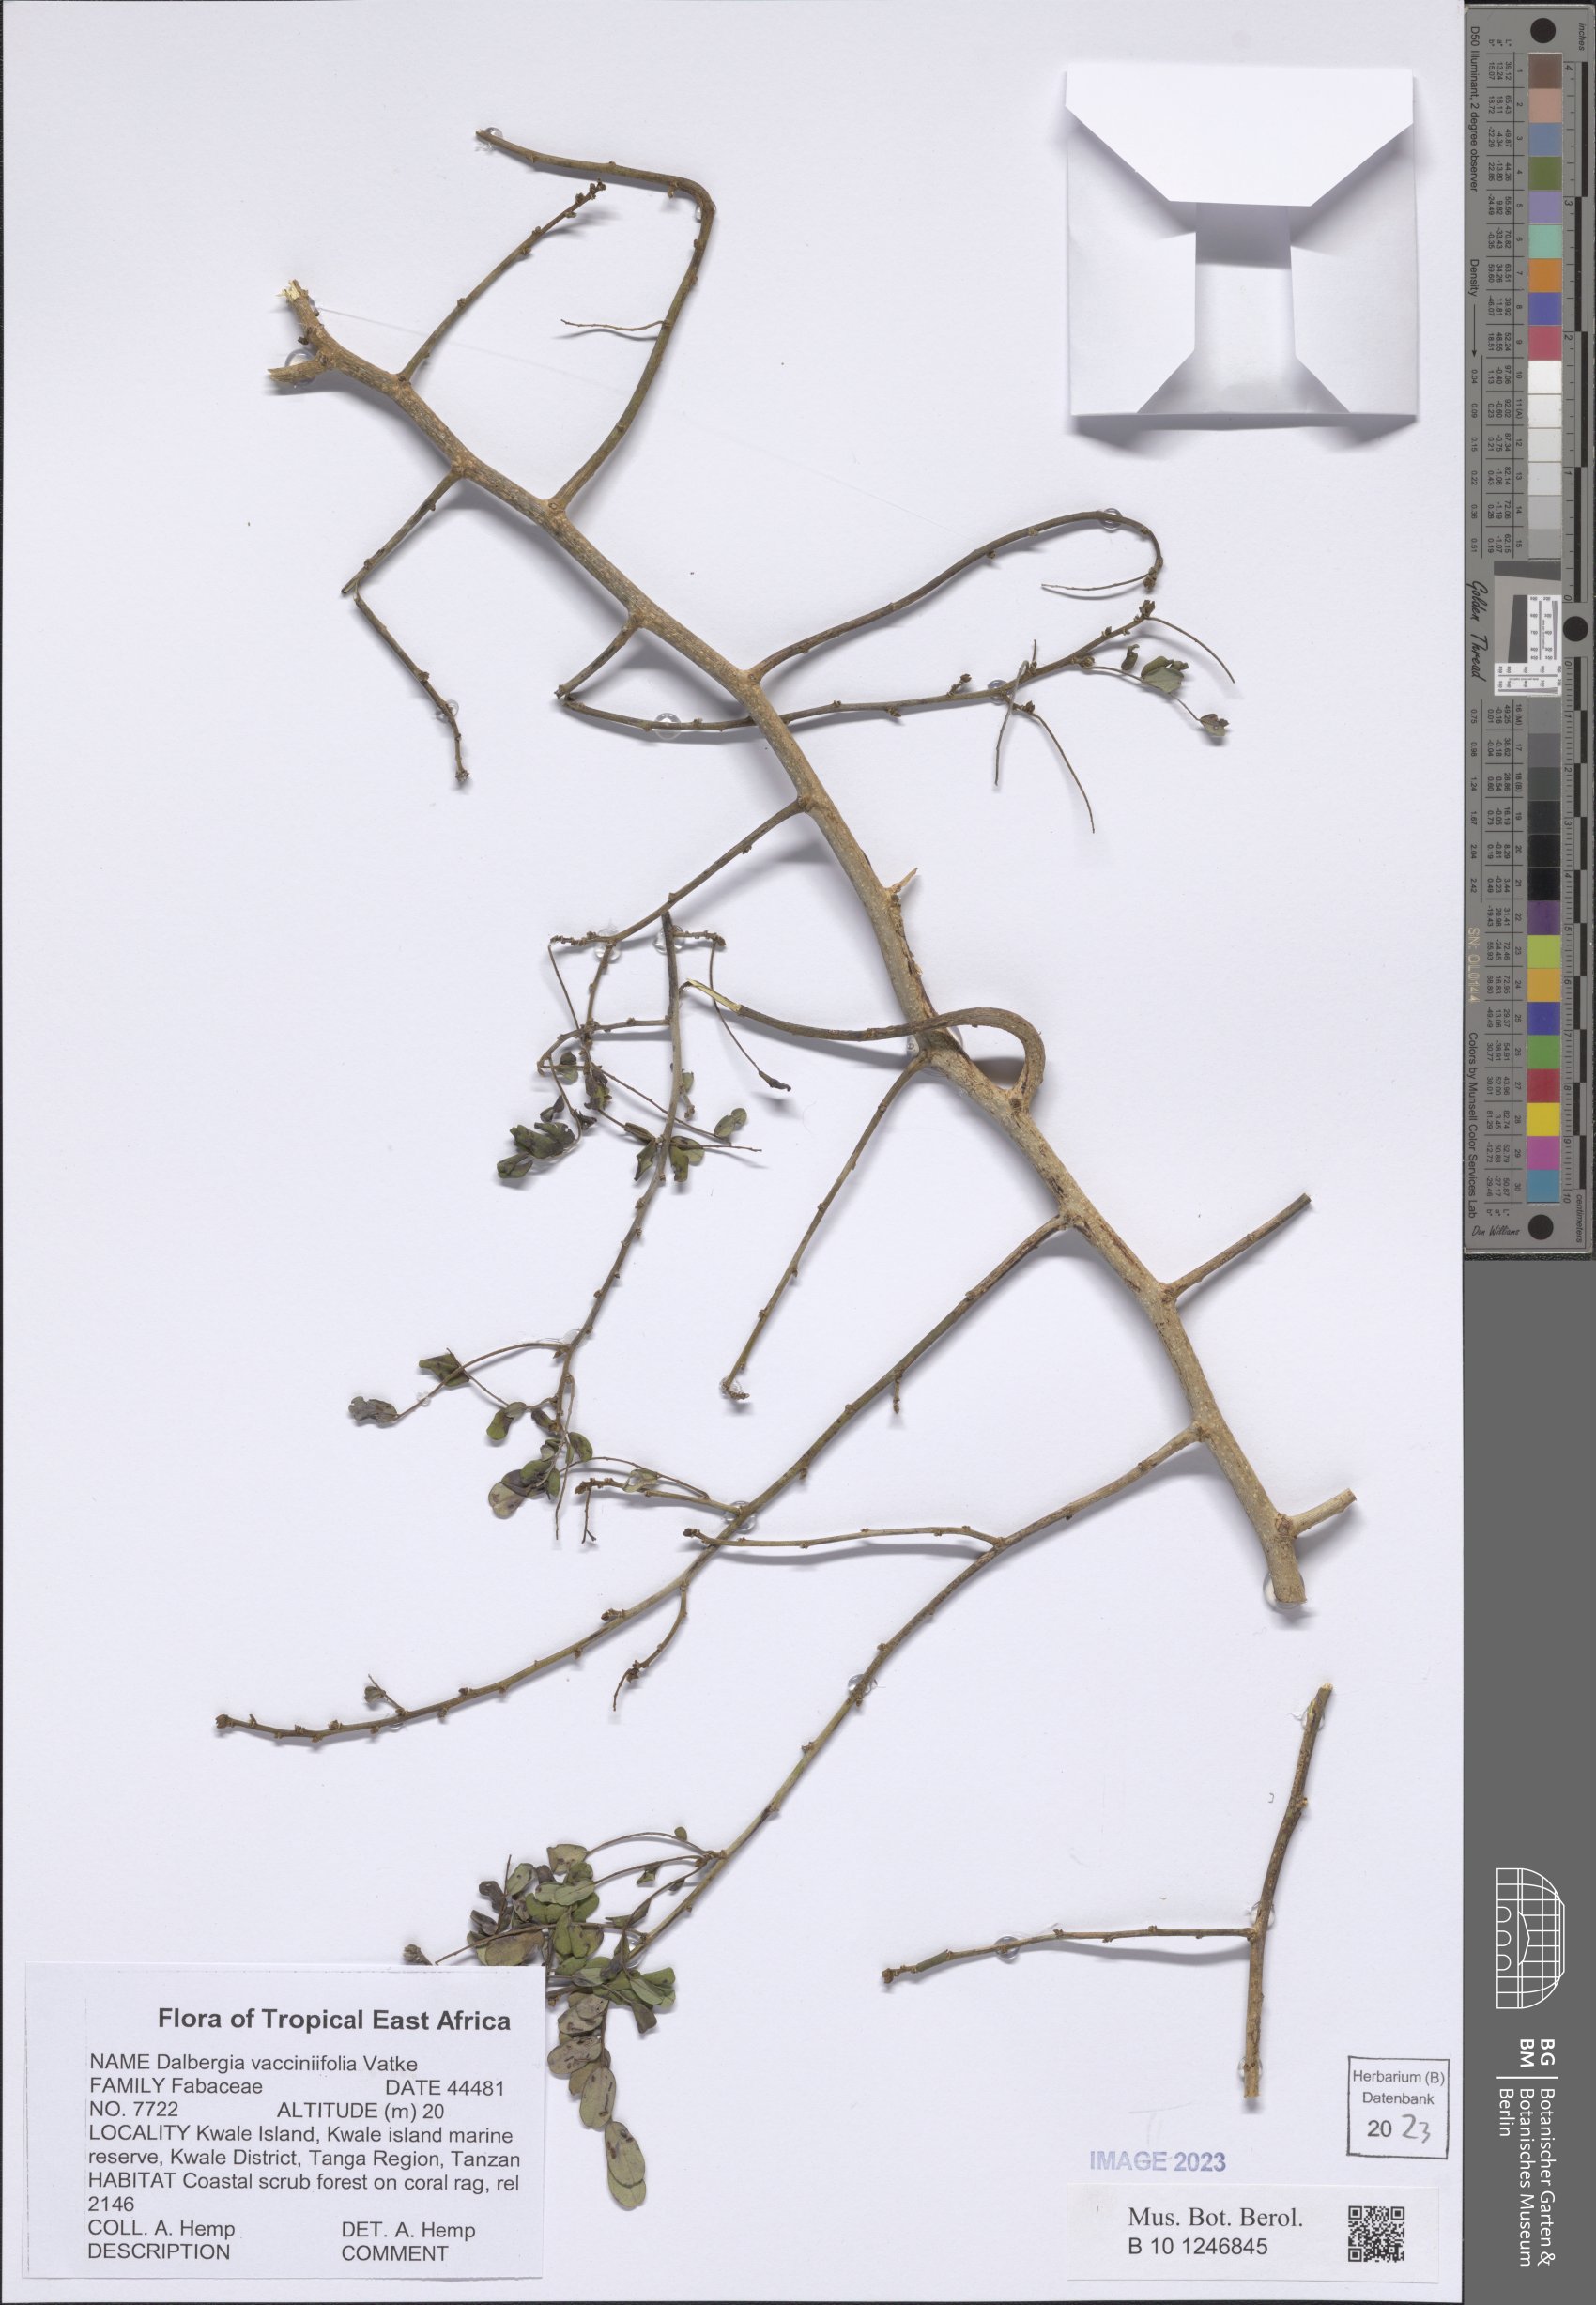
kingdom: Plantae
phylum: Tracheophyta
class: Magnoliopsida
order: Fabales
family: Fabaceae
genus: Dalbergia
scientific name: Dalbergia vacciniifolia
